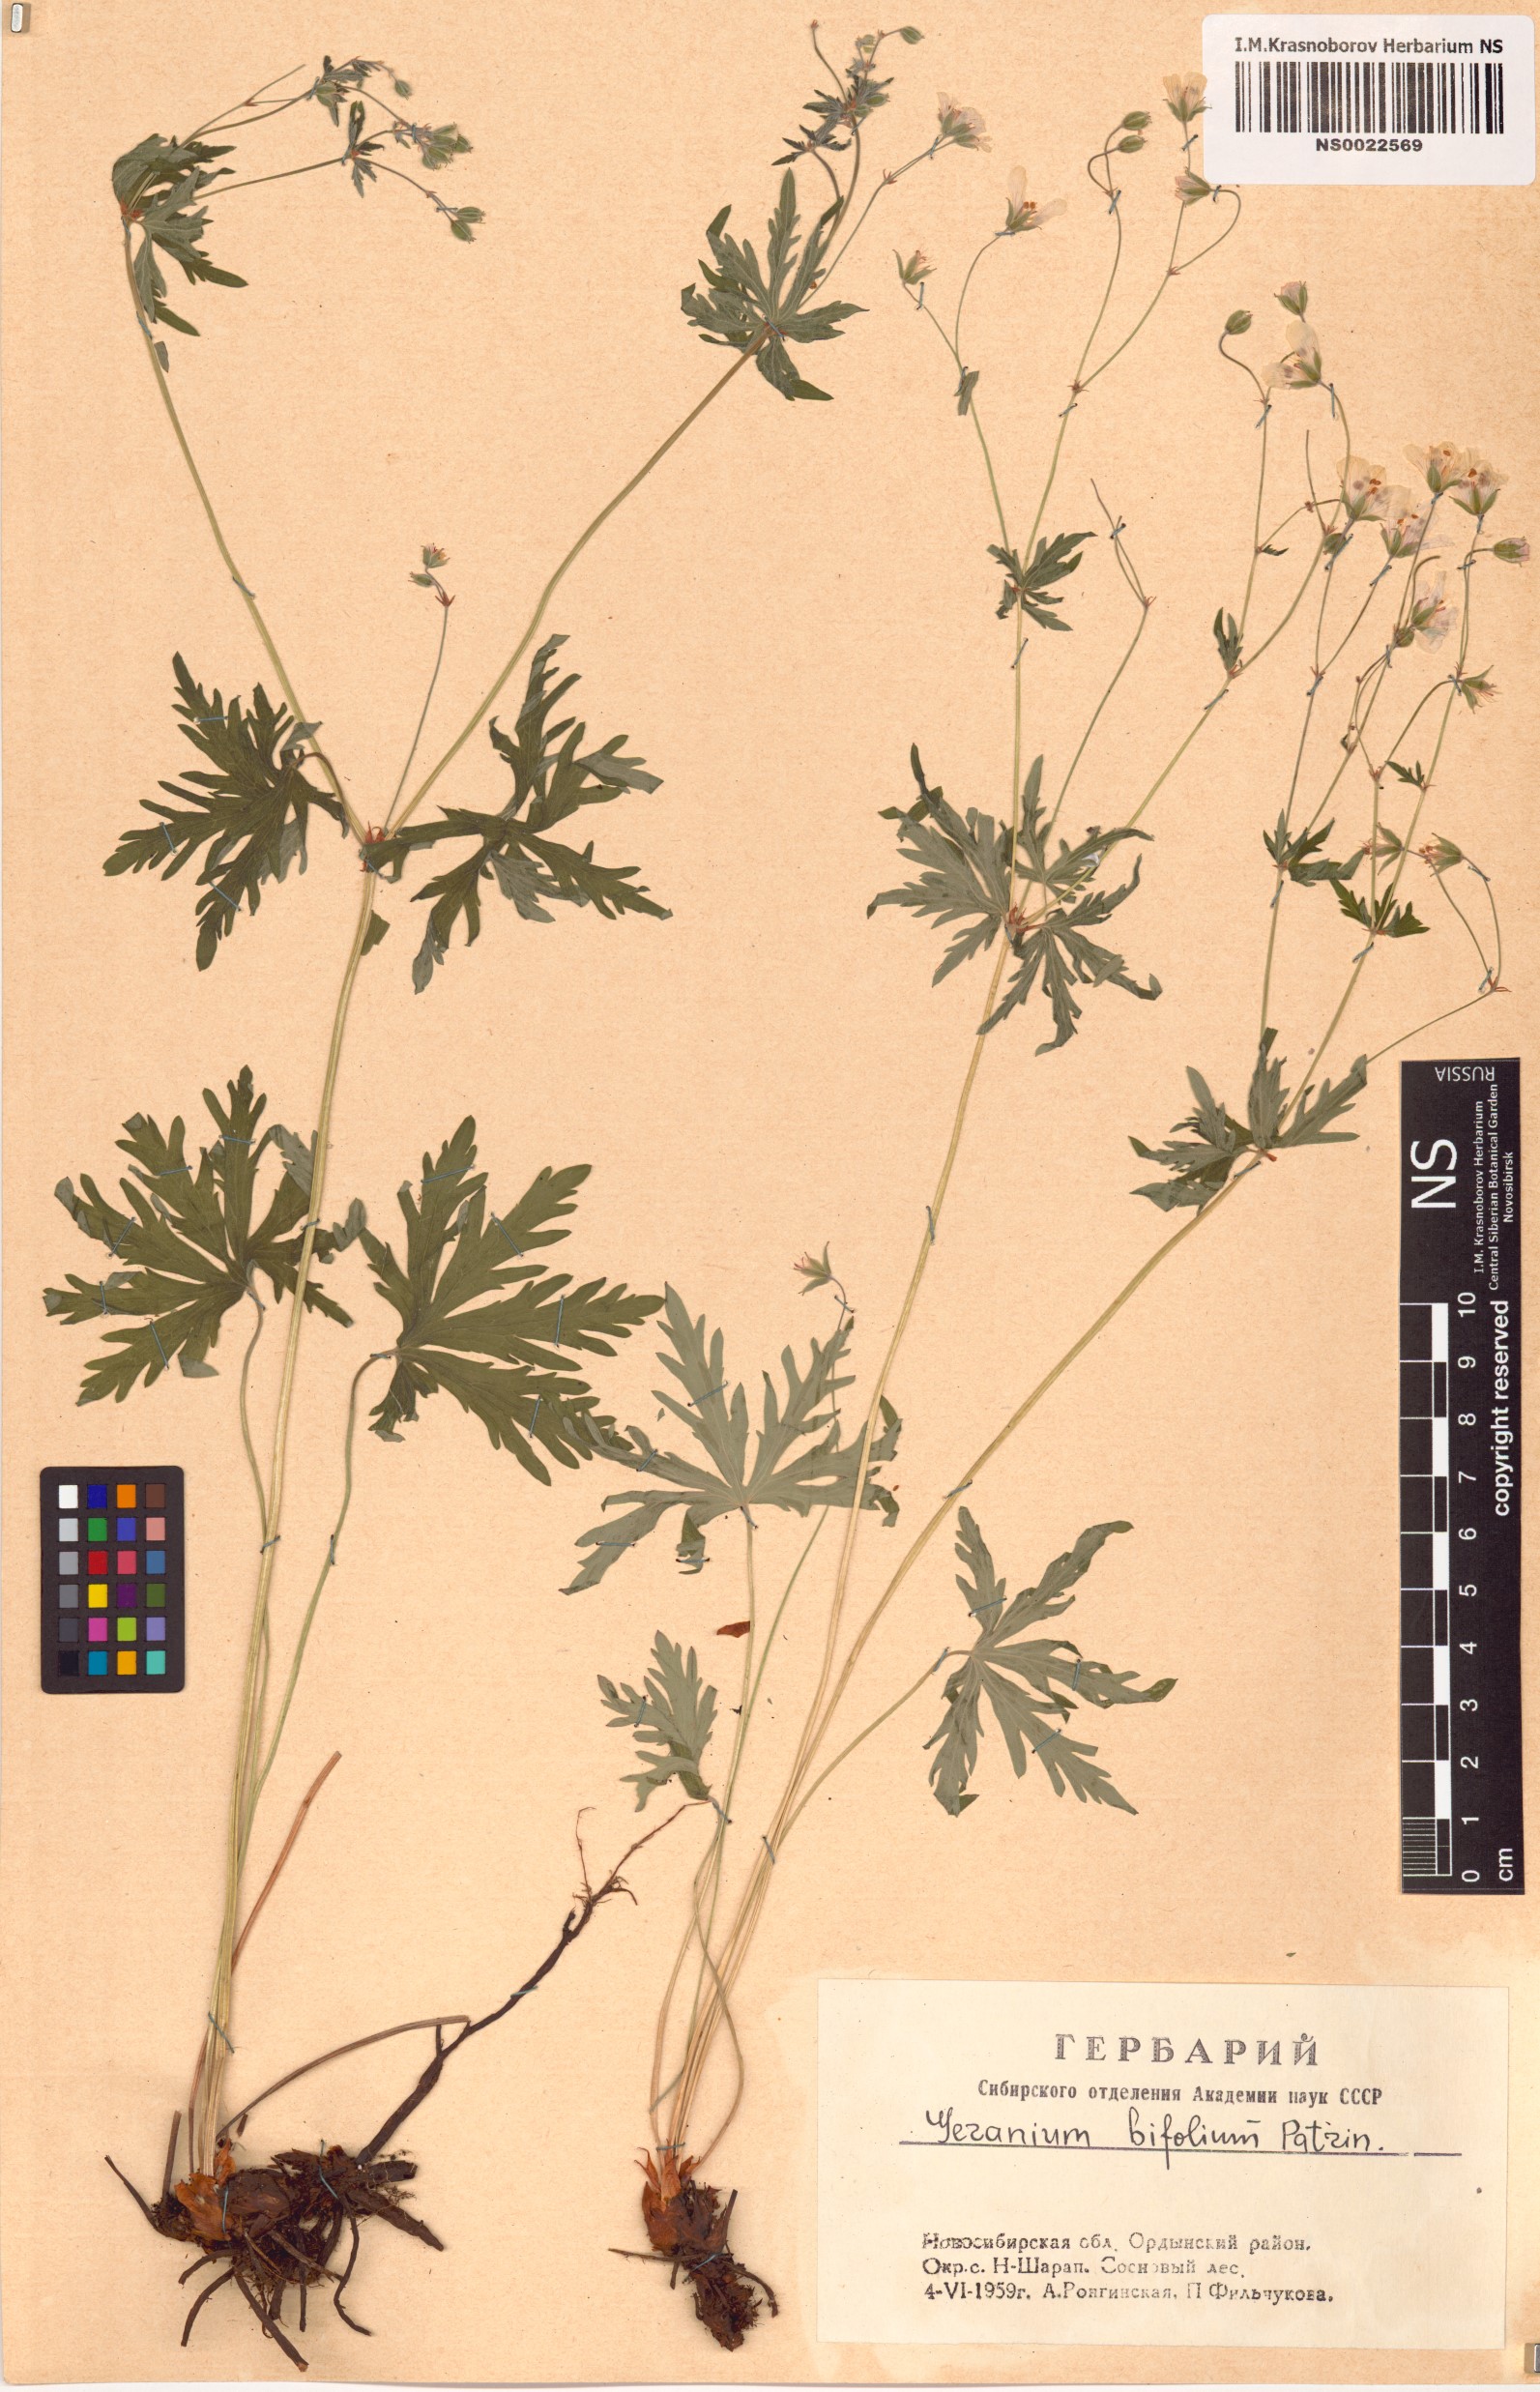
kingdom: Plantae
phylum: Tracheophyta
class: Magnoliopsida
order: Geraniales
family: Geraniaceae
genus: Geranium
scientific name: Geranium pseudosibiricum
